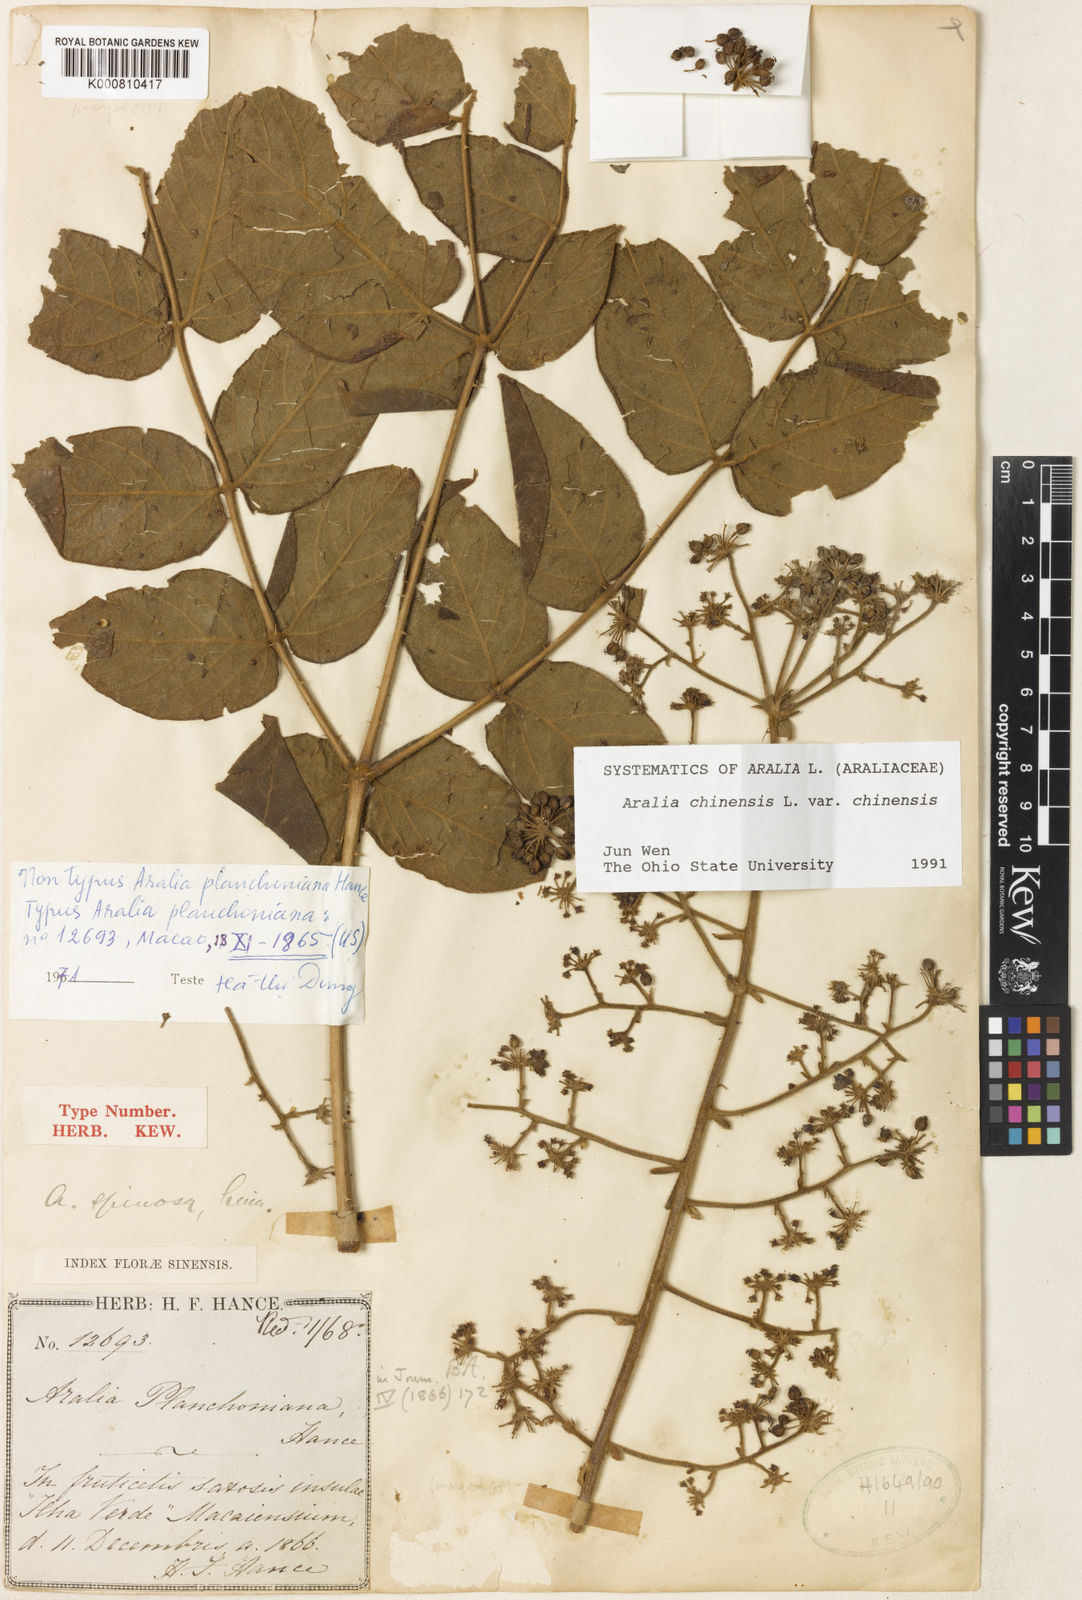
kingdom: Plantae
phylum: Tracheophyta
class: Magnoliopsida
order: Apiales
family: Araliaceae
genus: Aralia
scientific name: Aralia chinensis
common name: Chinese angelica-tree
